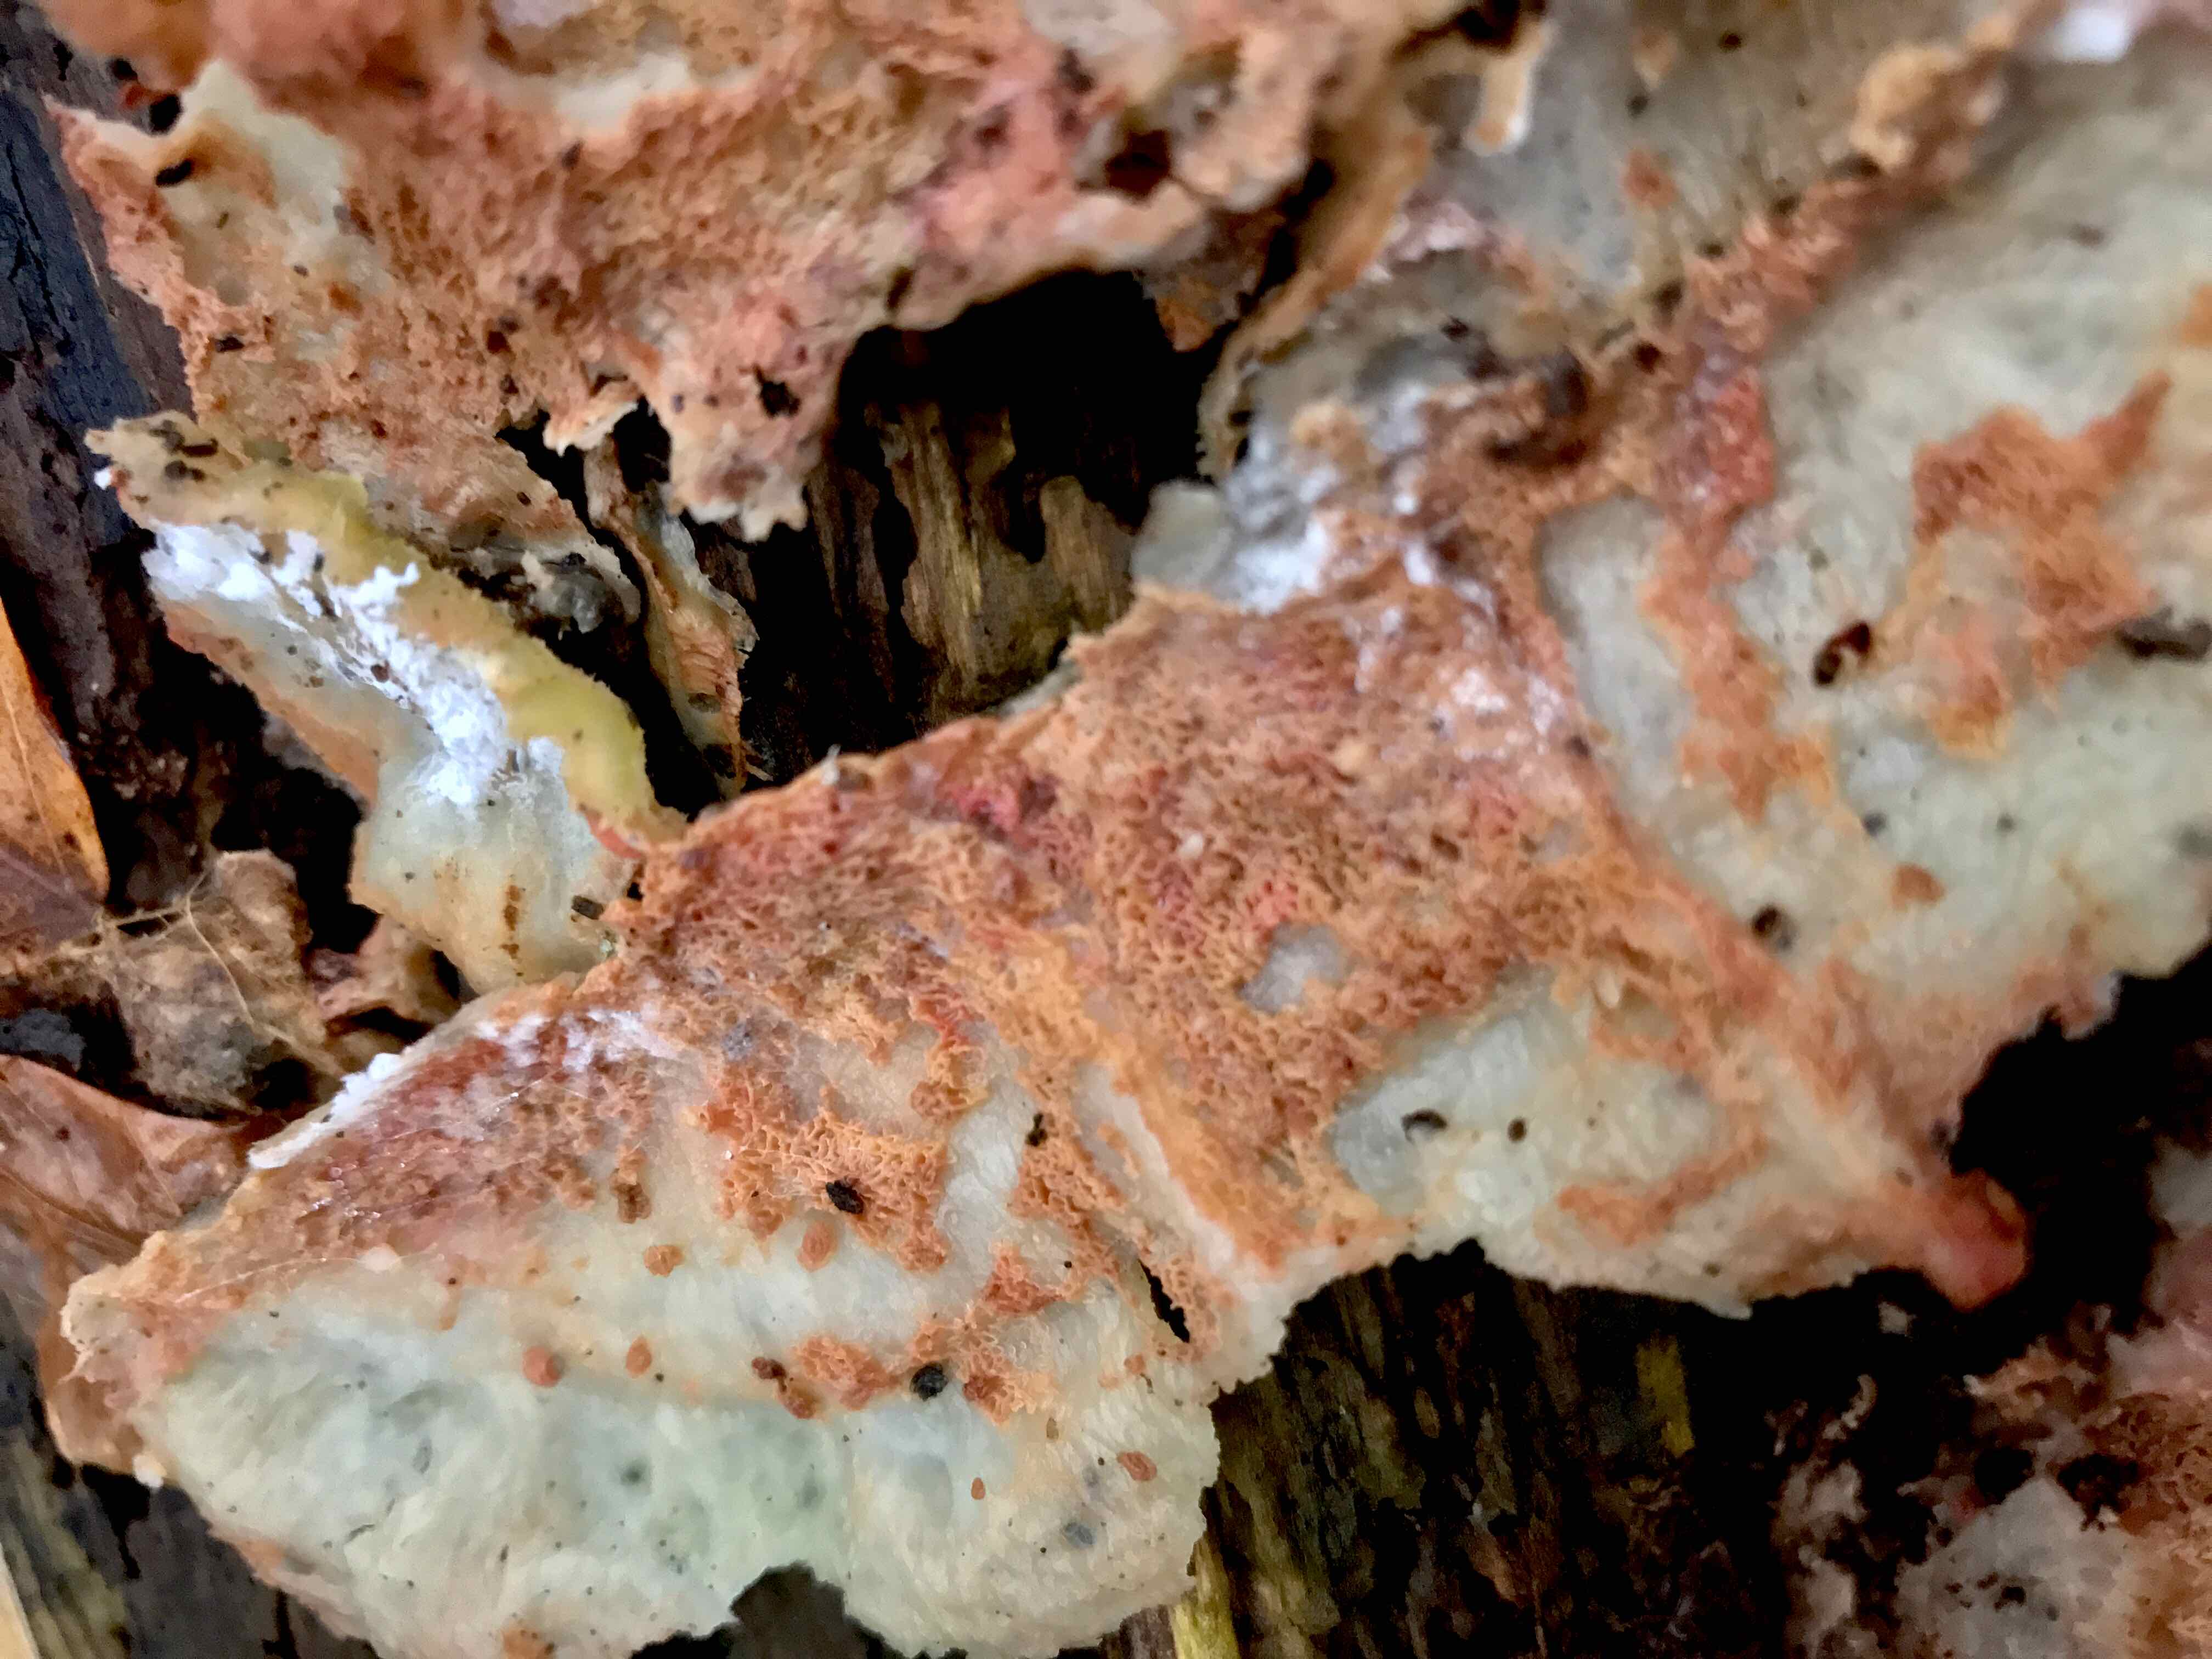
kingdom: Fungi
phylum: Basidiomycota
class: Agaricomycetes
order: Polyporales
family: Meruliaceae
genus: Phlebia
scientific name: Phlebia tremellosa
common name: bævrende åresvamp
